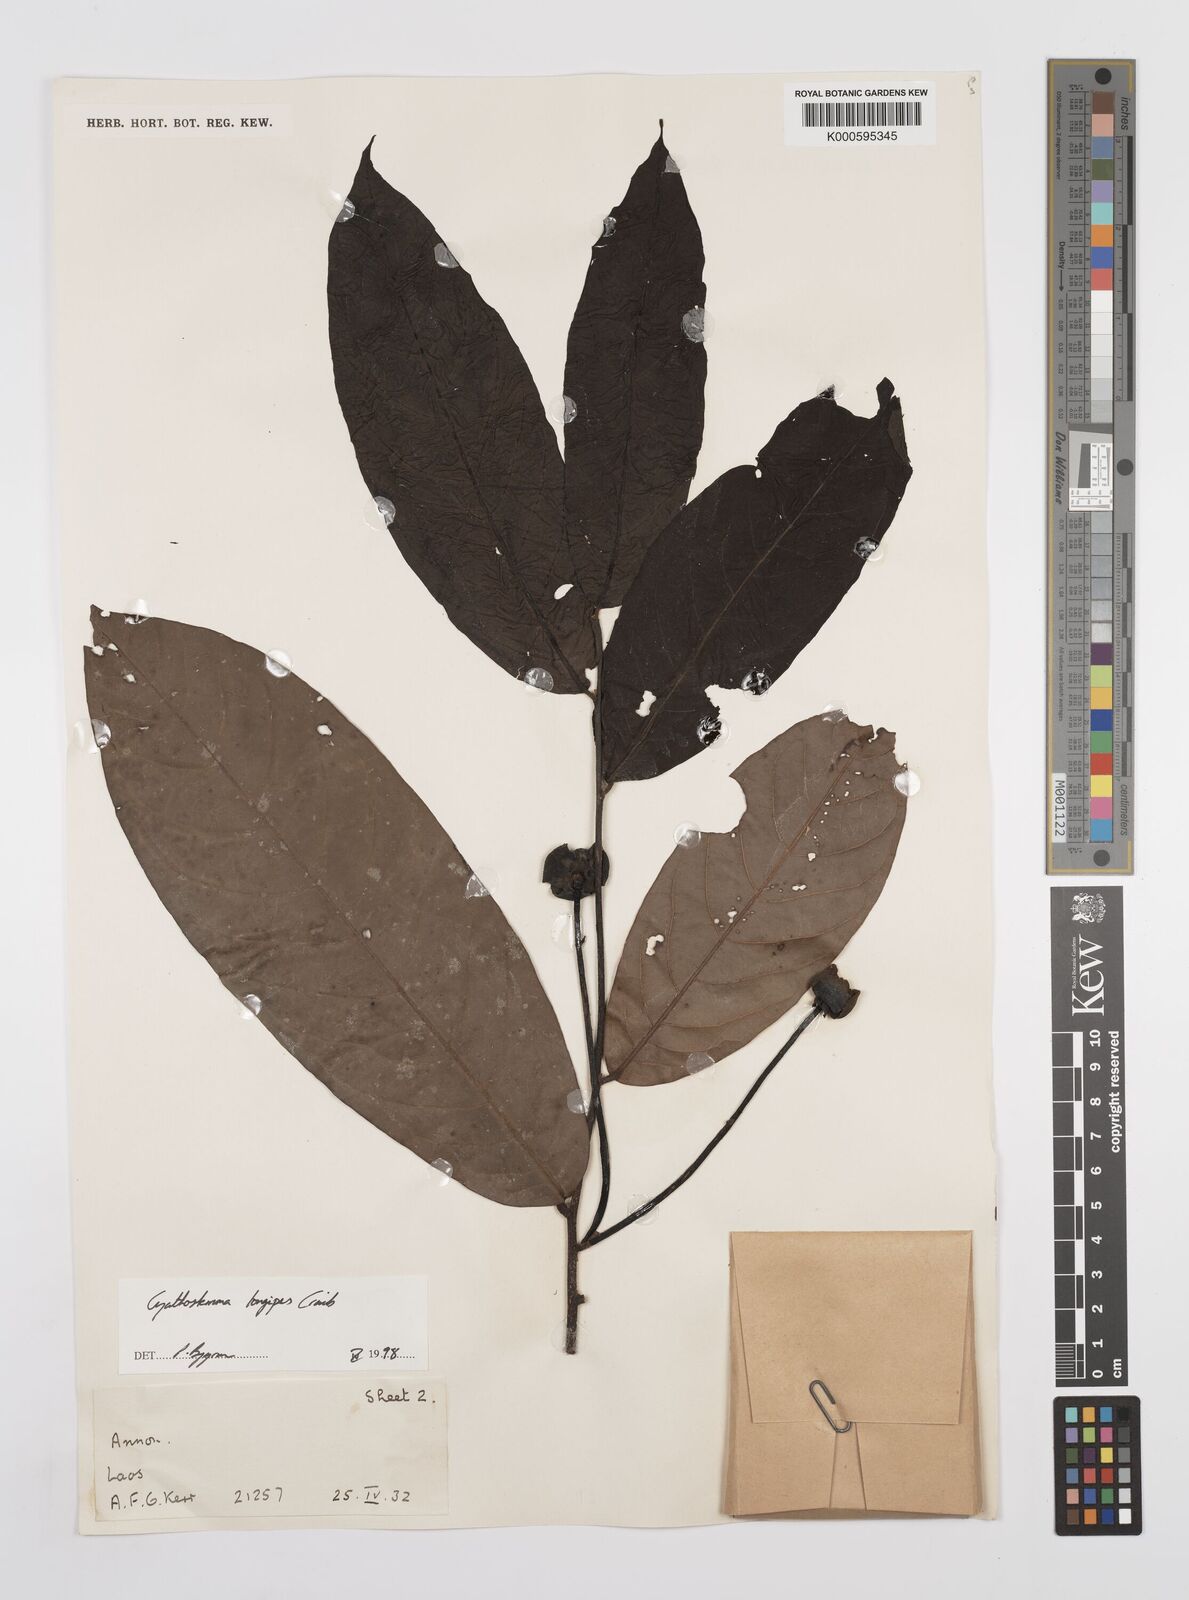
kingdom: Plantae
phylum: Tracheophyta
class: Magnoliopsida
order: Magnoliales
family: Annonaceae
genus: Uvaria
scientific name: Uvaria longipes
